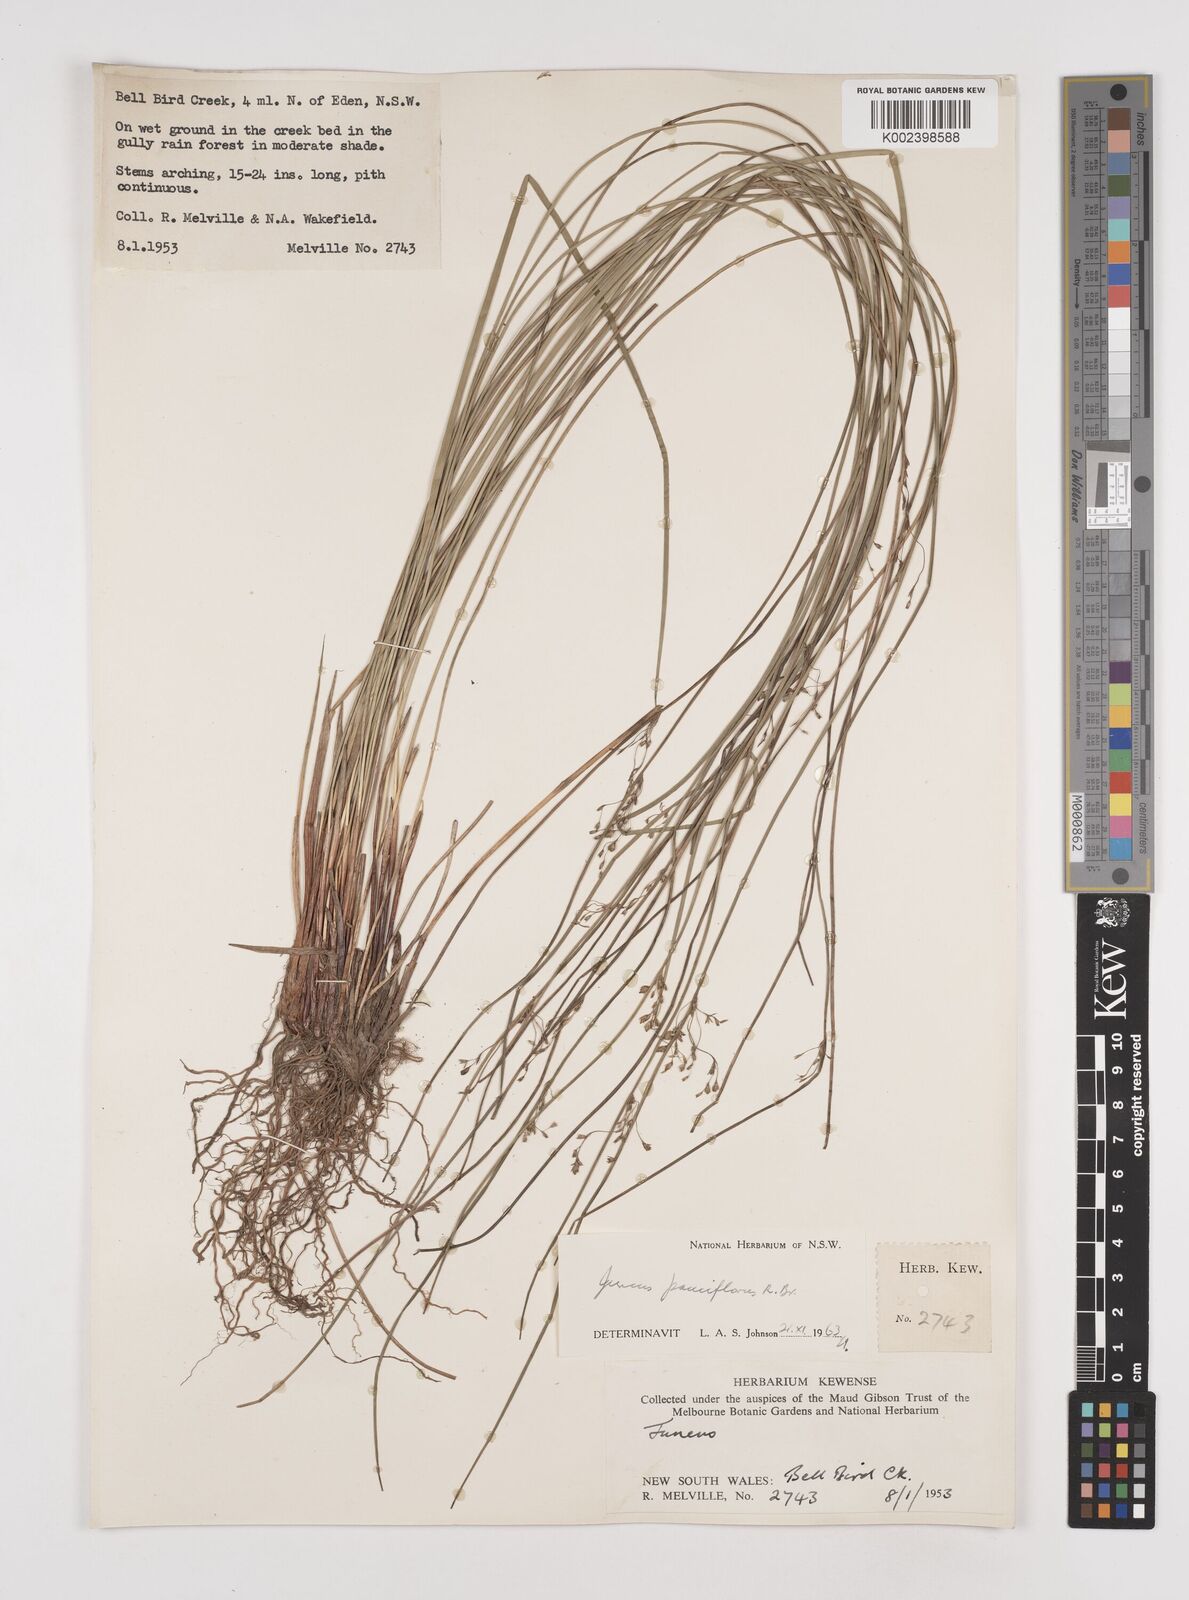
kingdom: Plantae
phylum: Tracheophyta
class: Liliopsida
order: Poales
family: Juncaceae
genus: Juncus
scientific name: Juncus pauciflorus
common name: Loose-flowered rush
